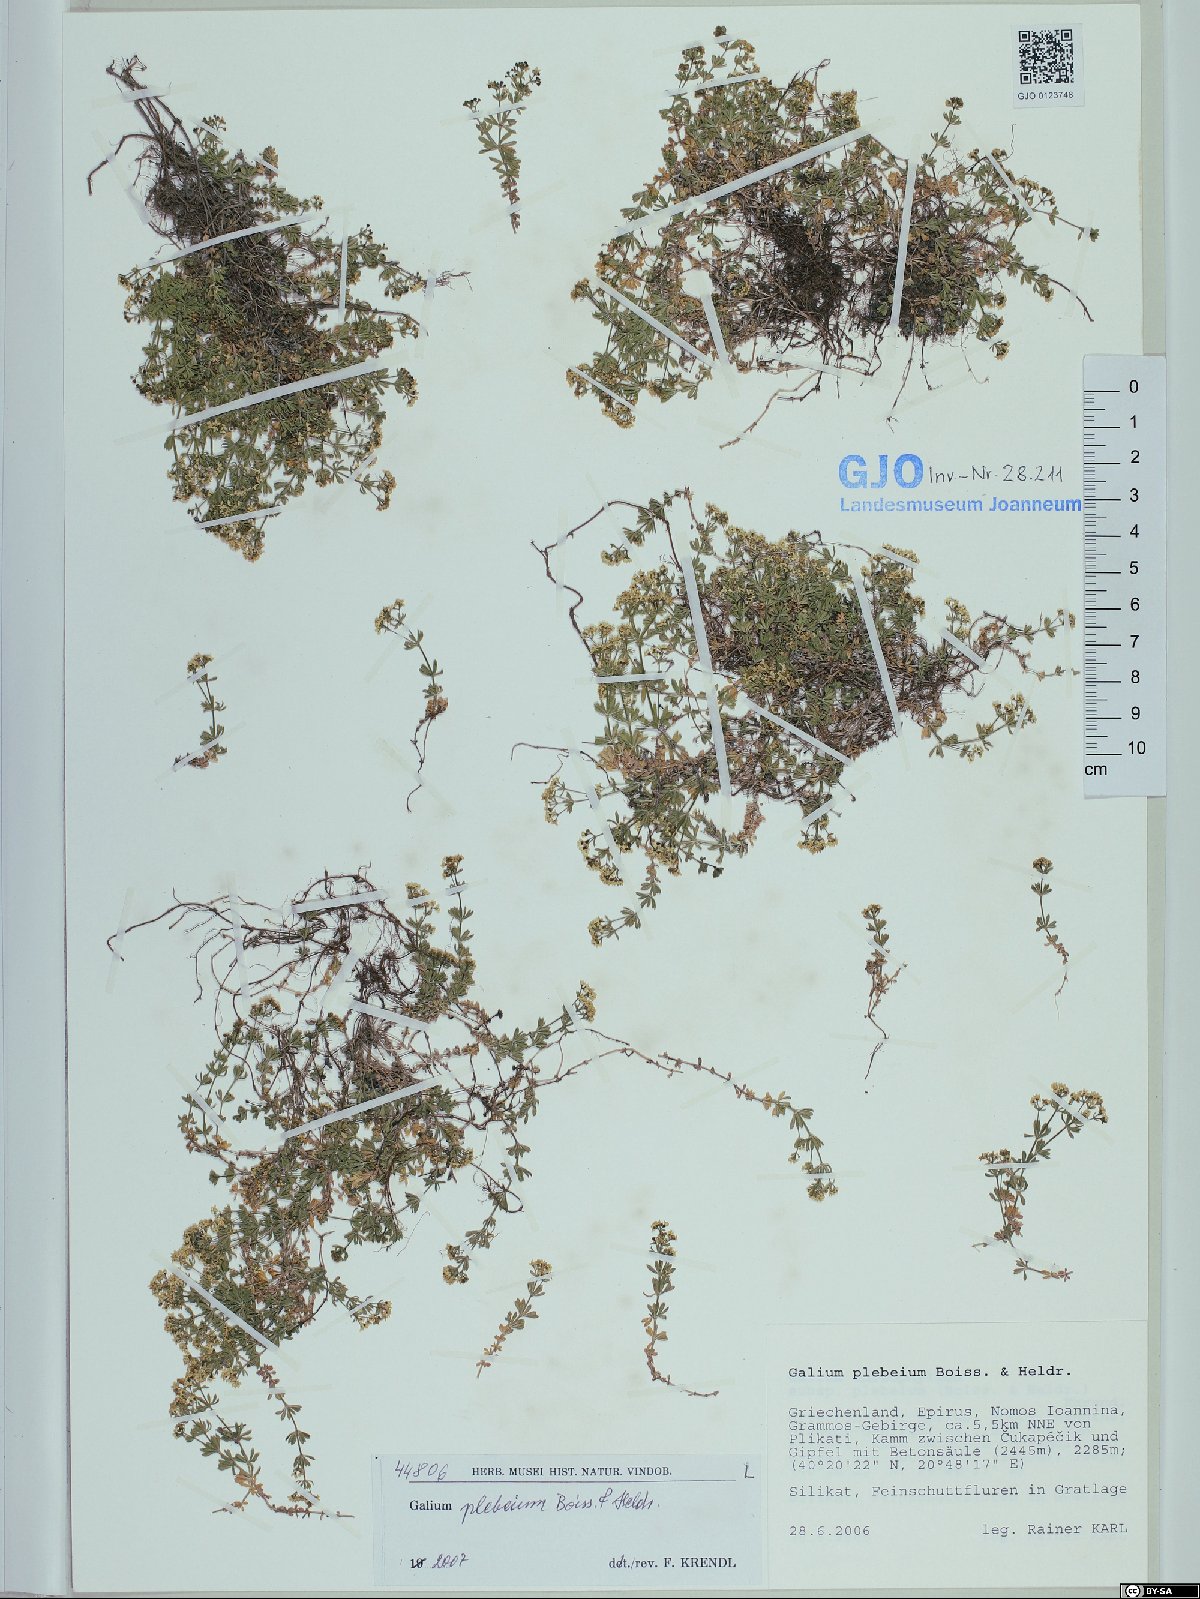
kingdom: Plantae
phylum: Tracheophyta
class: Magnoliopsida
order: Gentianales
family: Rubiaceae
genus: Galium
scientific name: Galium anisophyllon
